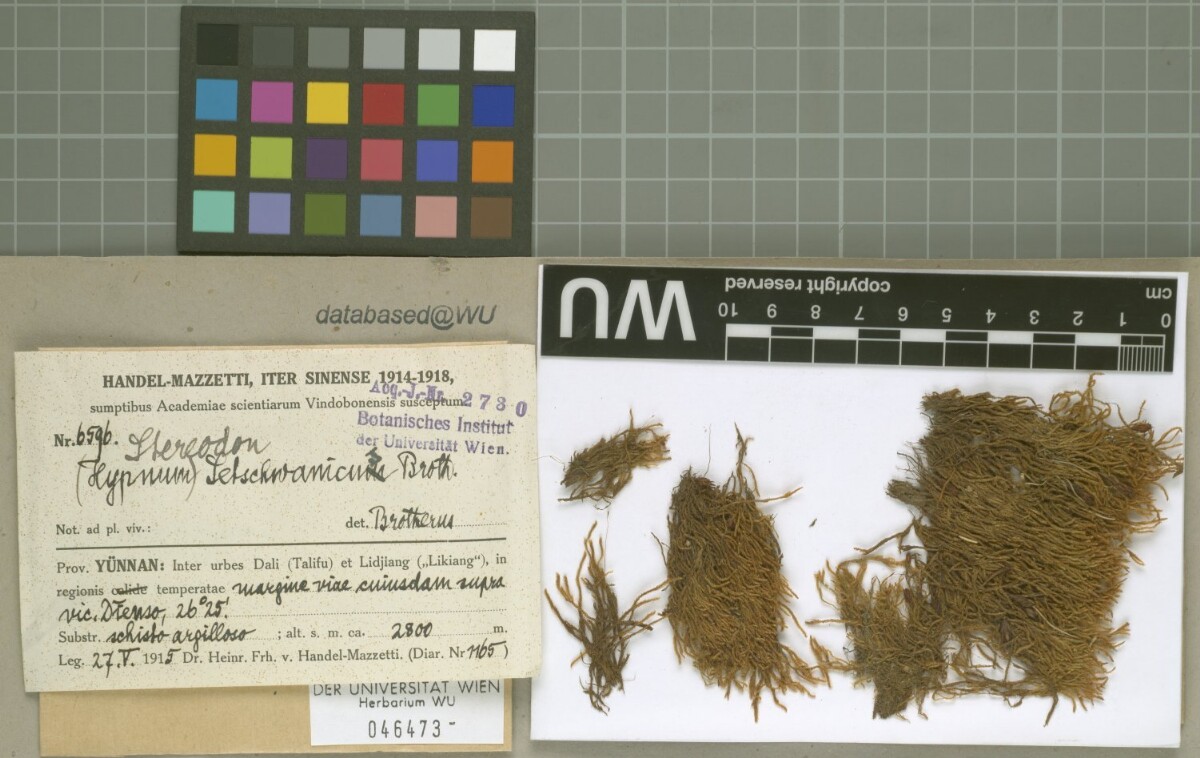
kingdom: Plantae
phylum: Bryophyta
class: Bryopsida
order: Hypnales
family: Hypnaceae
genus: Hypnum
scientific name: Hypnum setschwanicum
